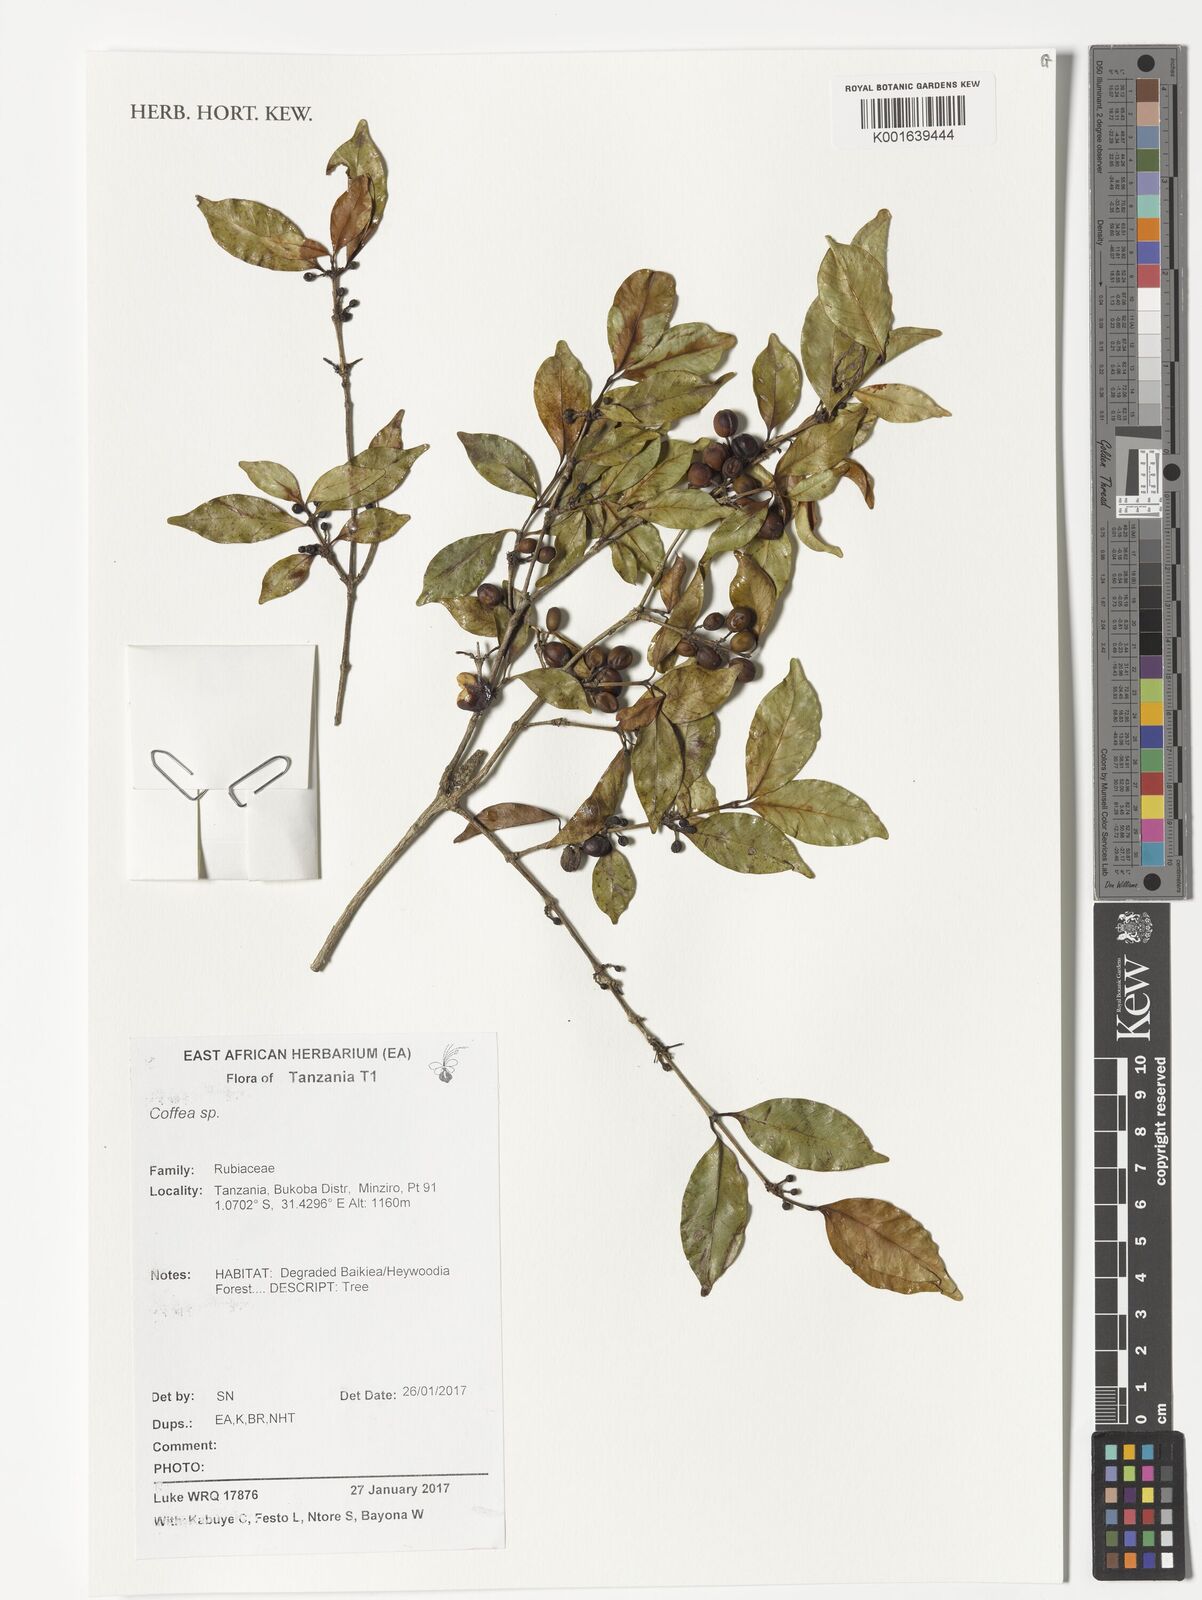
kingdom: Plantae
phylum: Tracheophyta
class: Magnoliopsida
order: Gentianales
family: Rubiaceae
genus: Coffea
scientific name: Coffea
